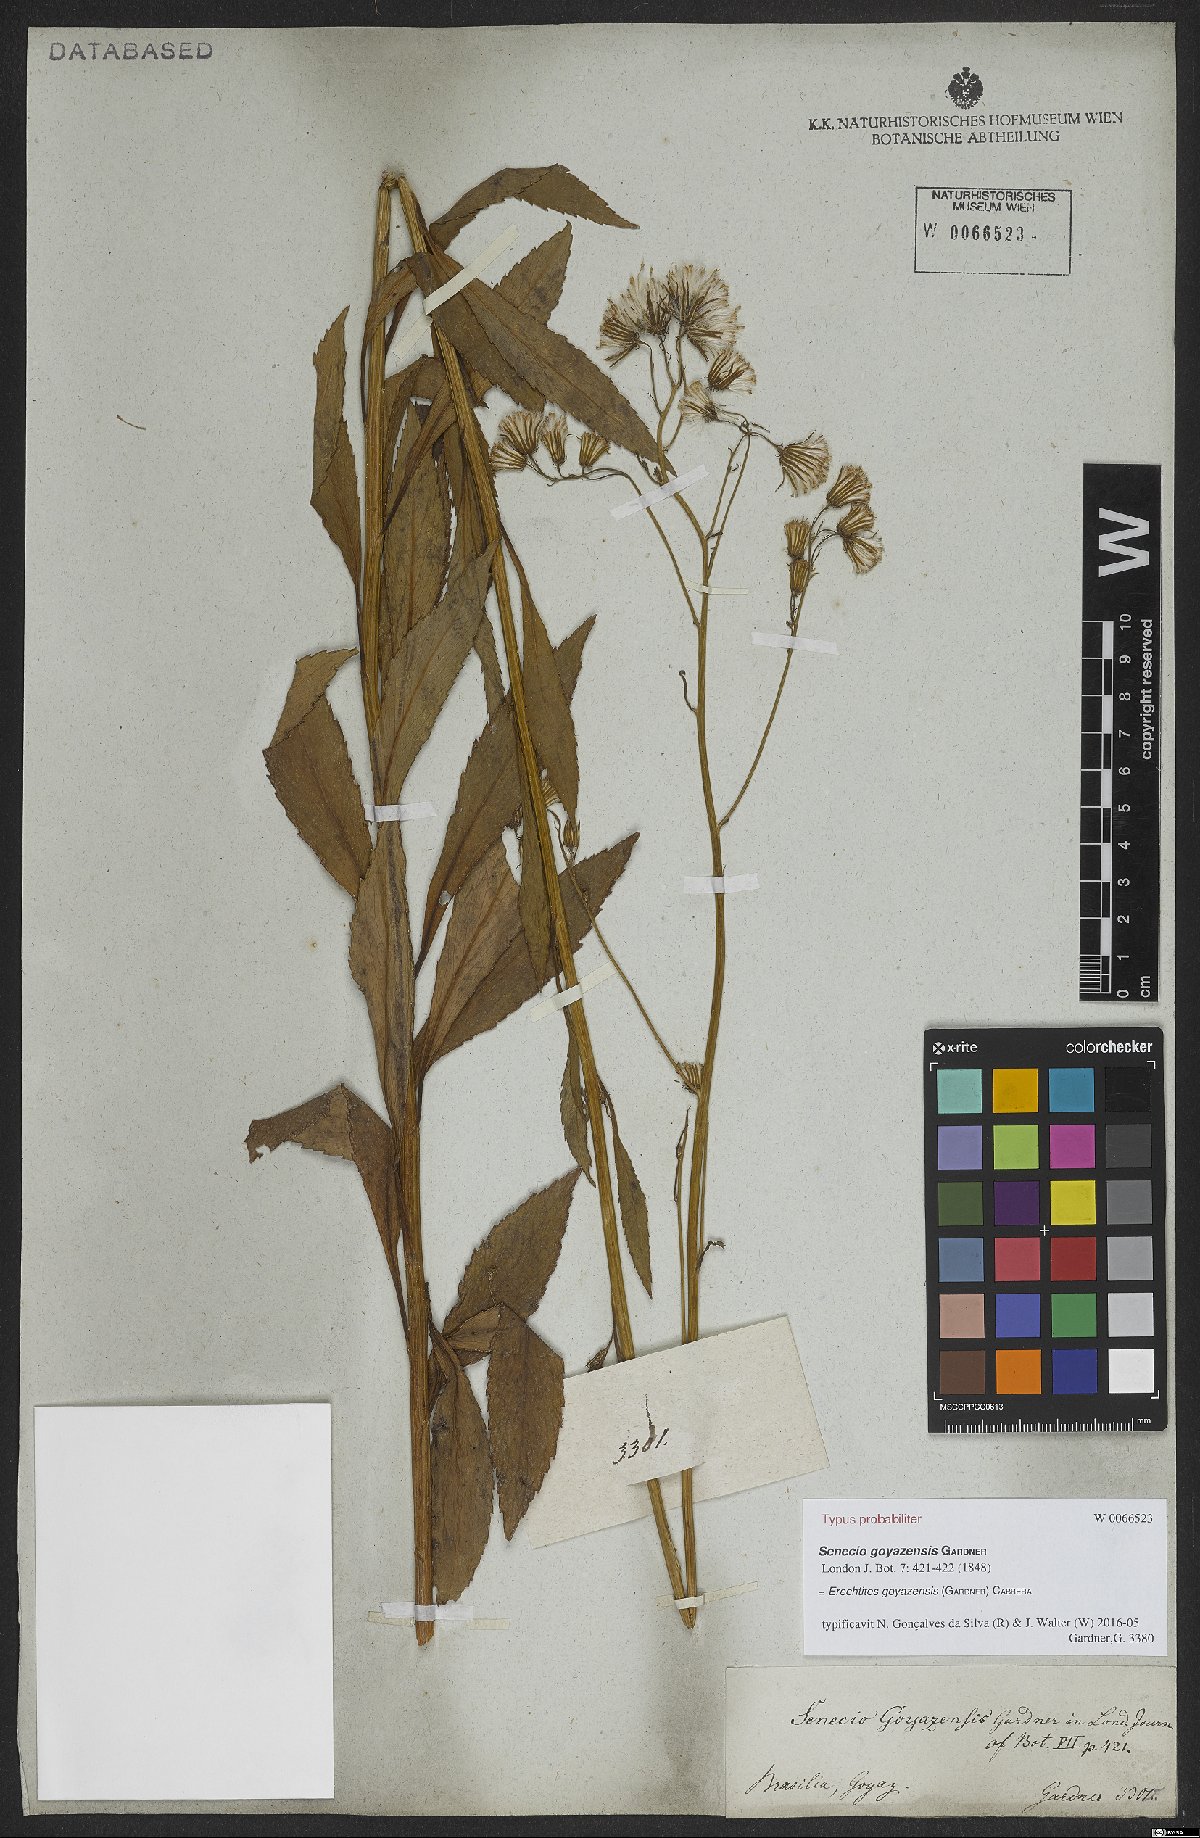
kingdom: Plantae
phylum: Tracheophyta
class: Magnoliopsida
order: Asterales
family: Asteraceae
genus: Erechtites
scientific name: Erechtites goyazensis
